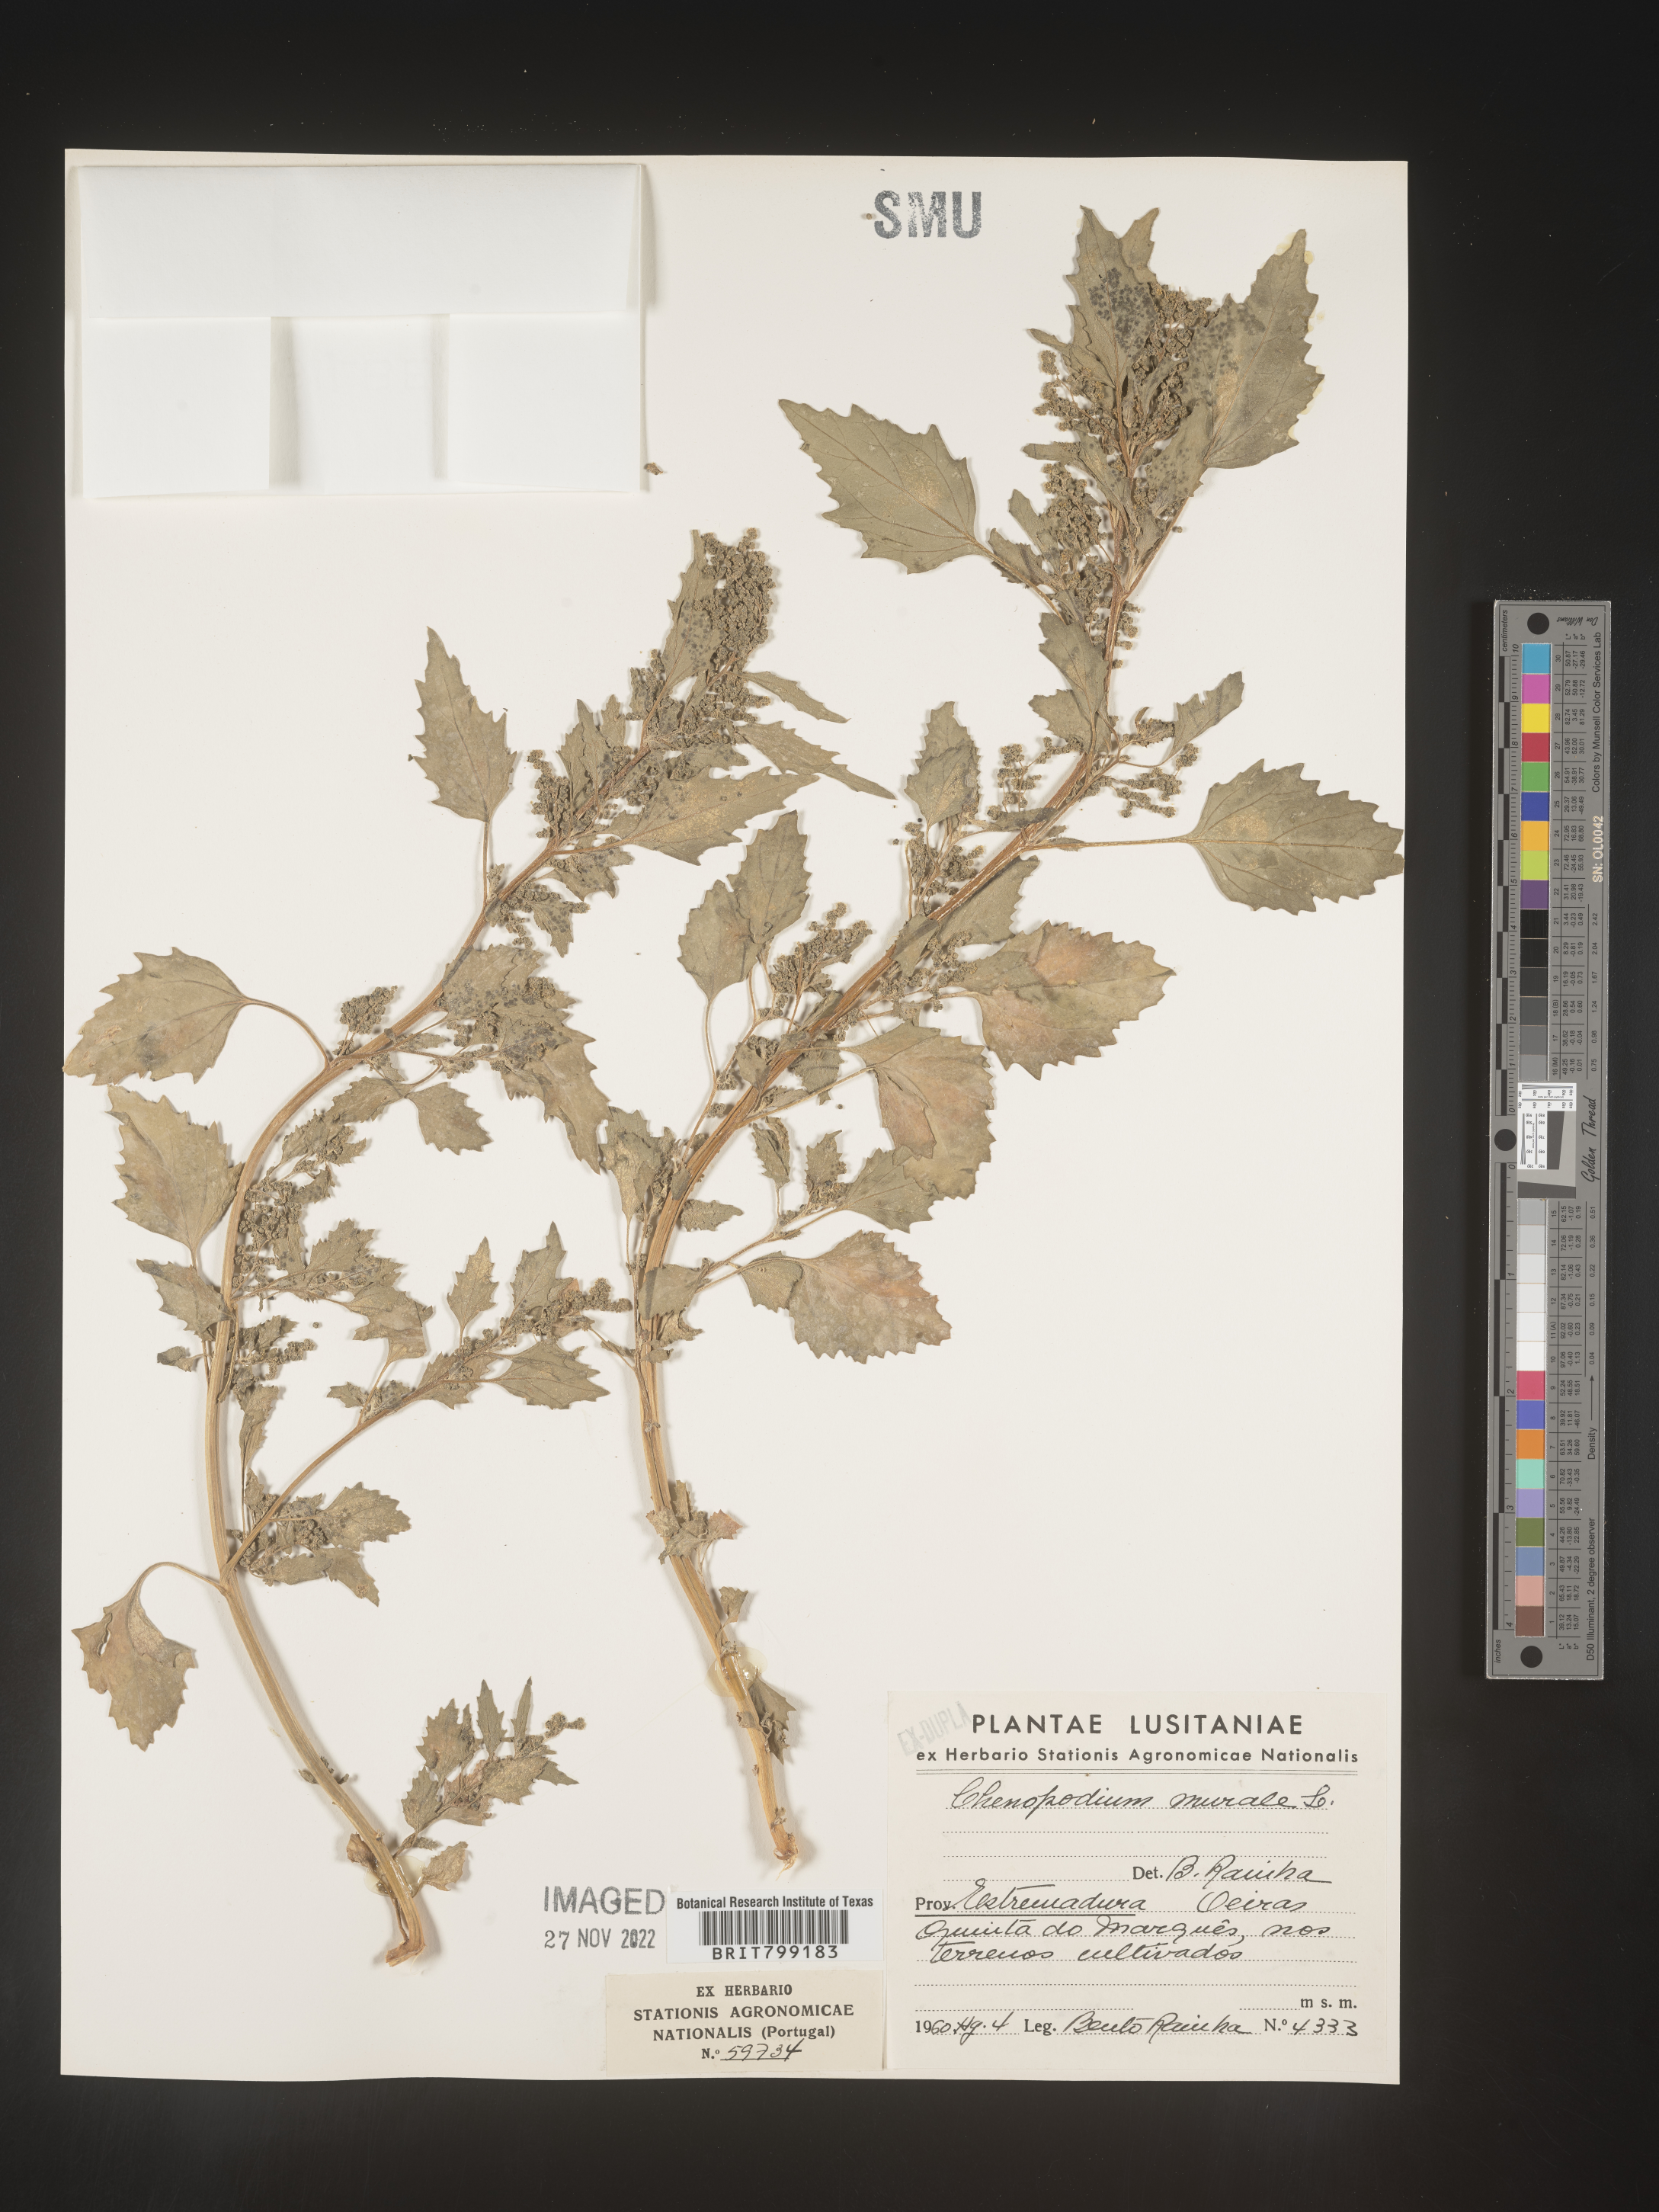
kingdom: Plantae
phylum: Tracheophyta
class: Magnoliopsida
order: Caryophyllales
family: Amaranthaceae
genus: Chenopodiastrum
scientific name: Chenopodiastrum murale
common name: Sowbane
